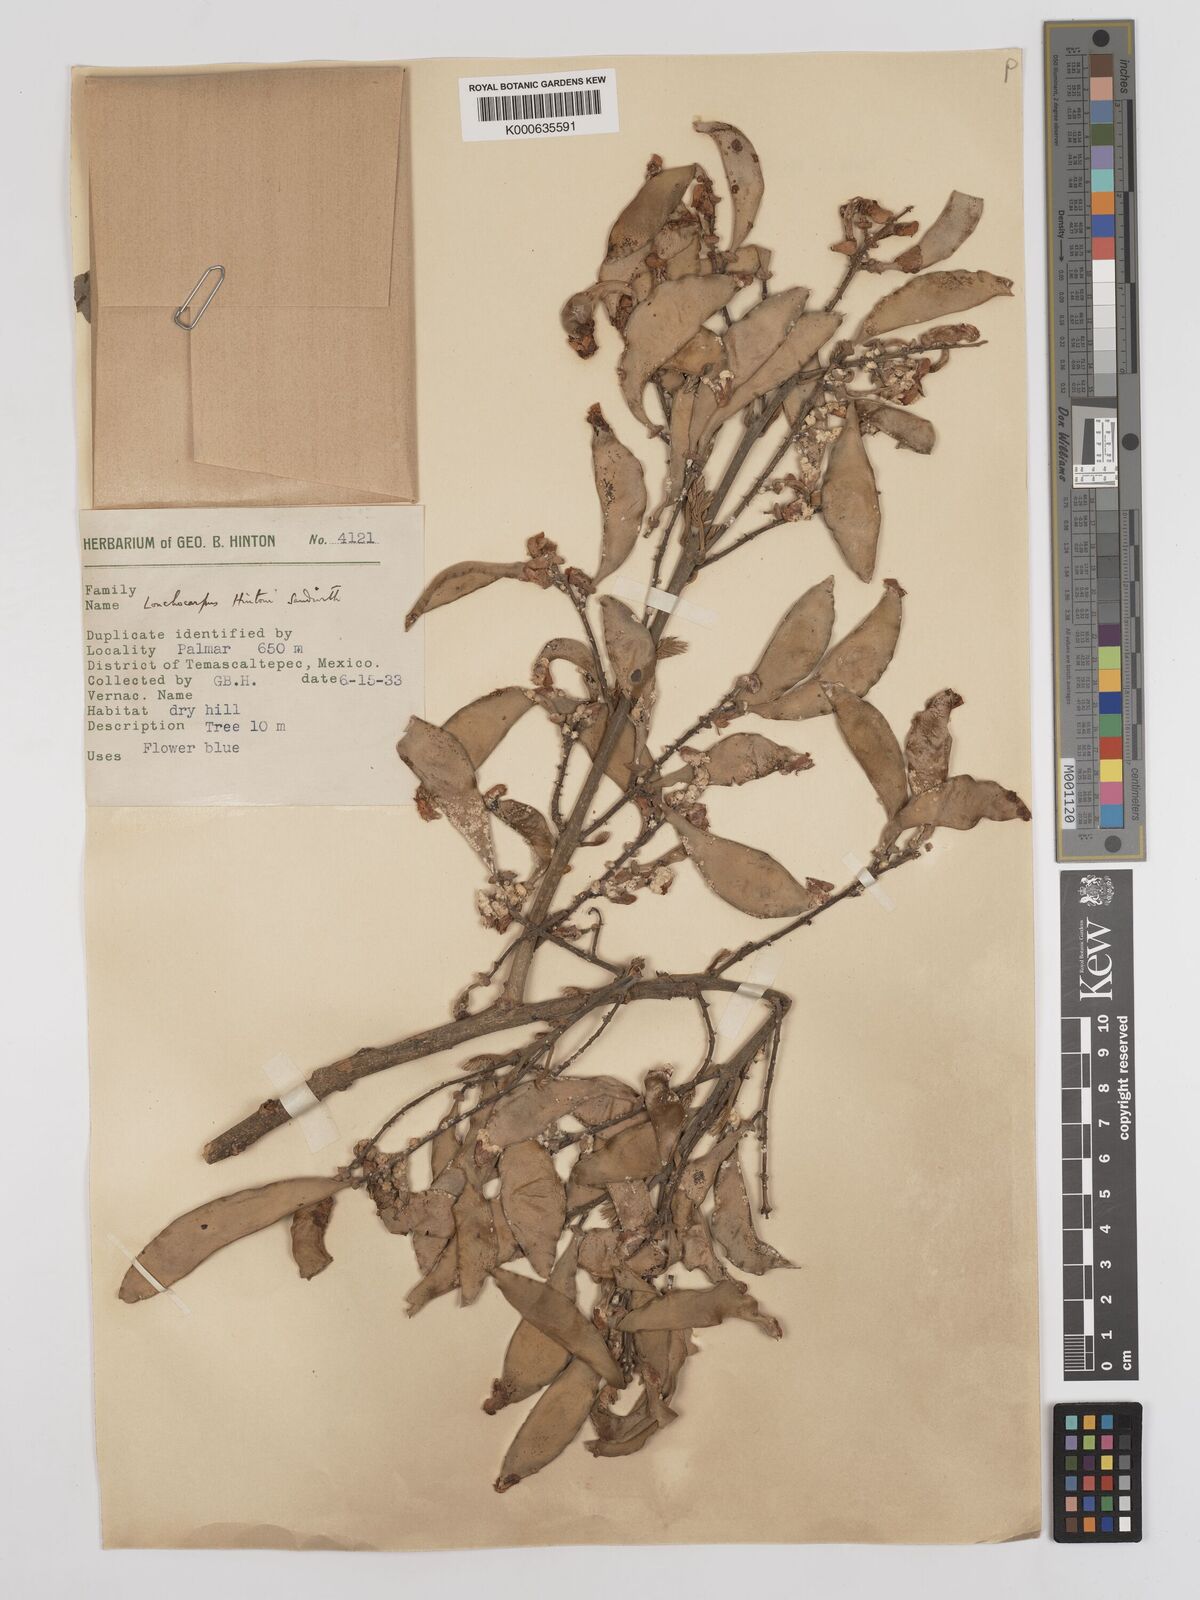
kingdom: Plantae
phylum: Tracheophyta
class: Magnoliopsida
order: Fabales
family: Fabaceae
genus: Lonchocarpus
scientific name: Lonchocarpus hintonii
